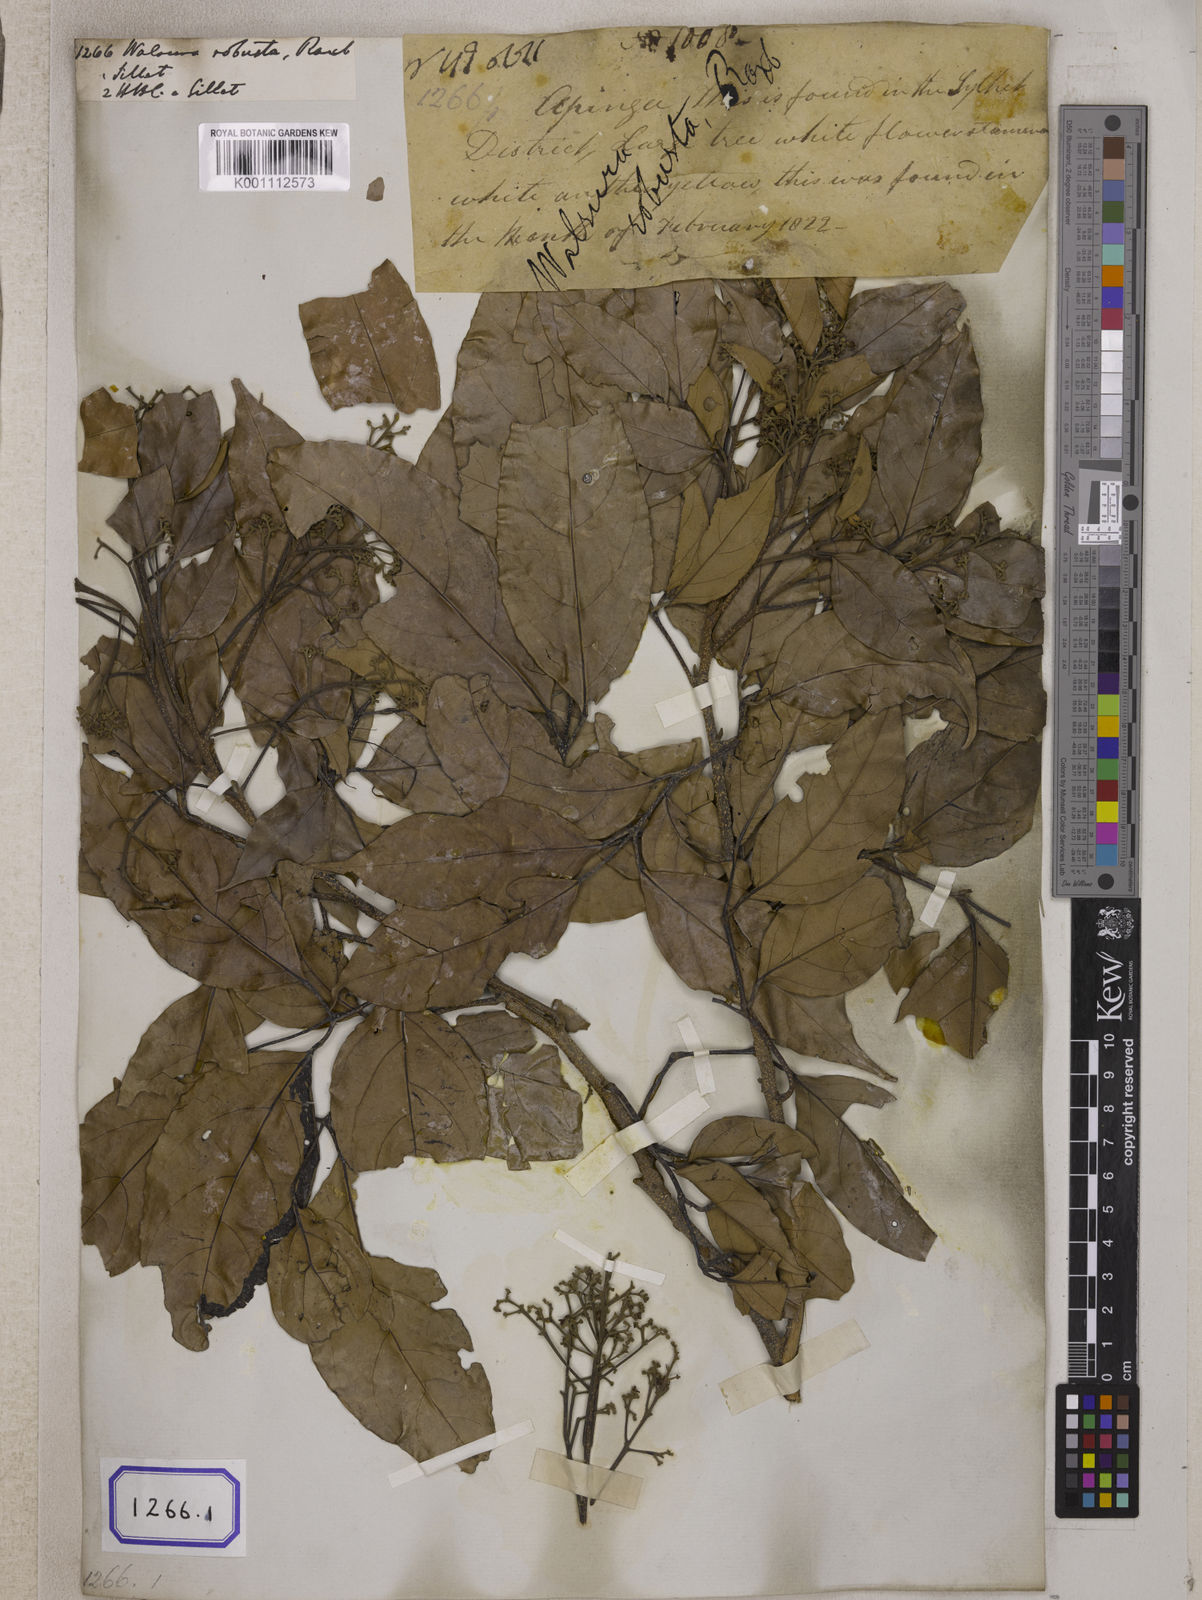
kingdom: Plantae
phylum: Tracheophyta
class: Magnoliopsida
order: Sapindales
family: Meliaceae
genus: Walsura
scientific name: Walsura robusta
